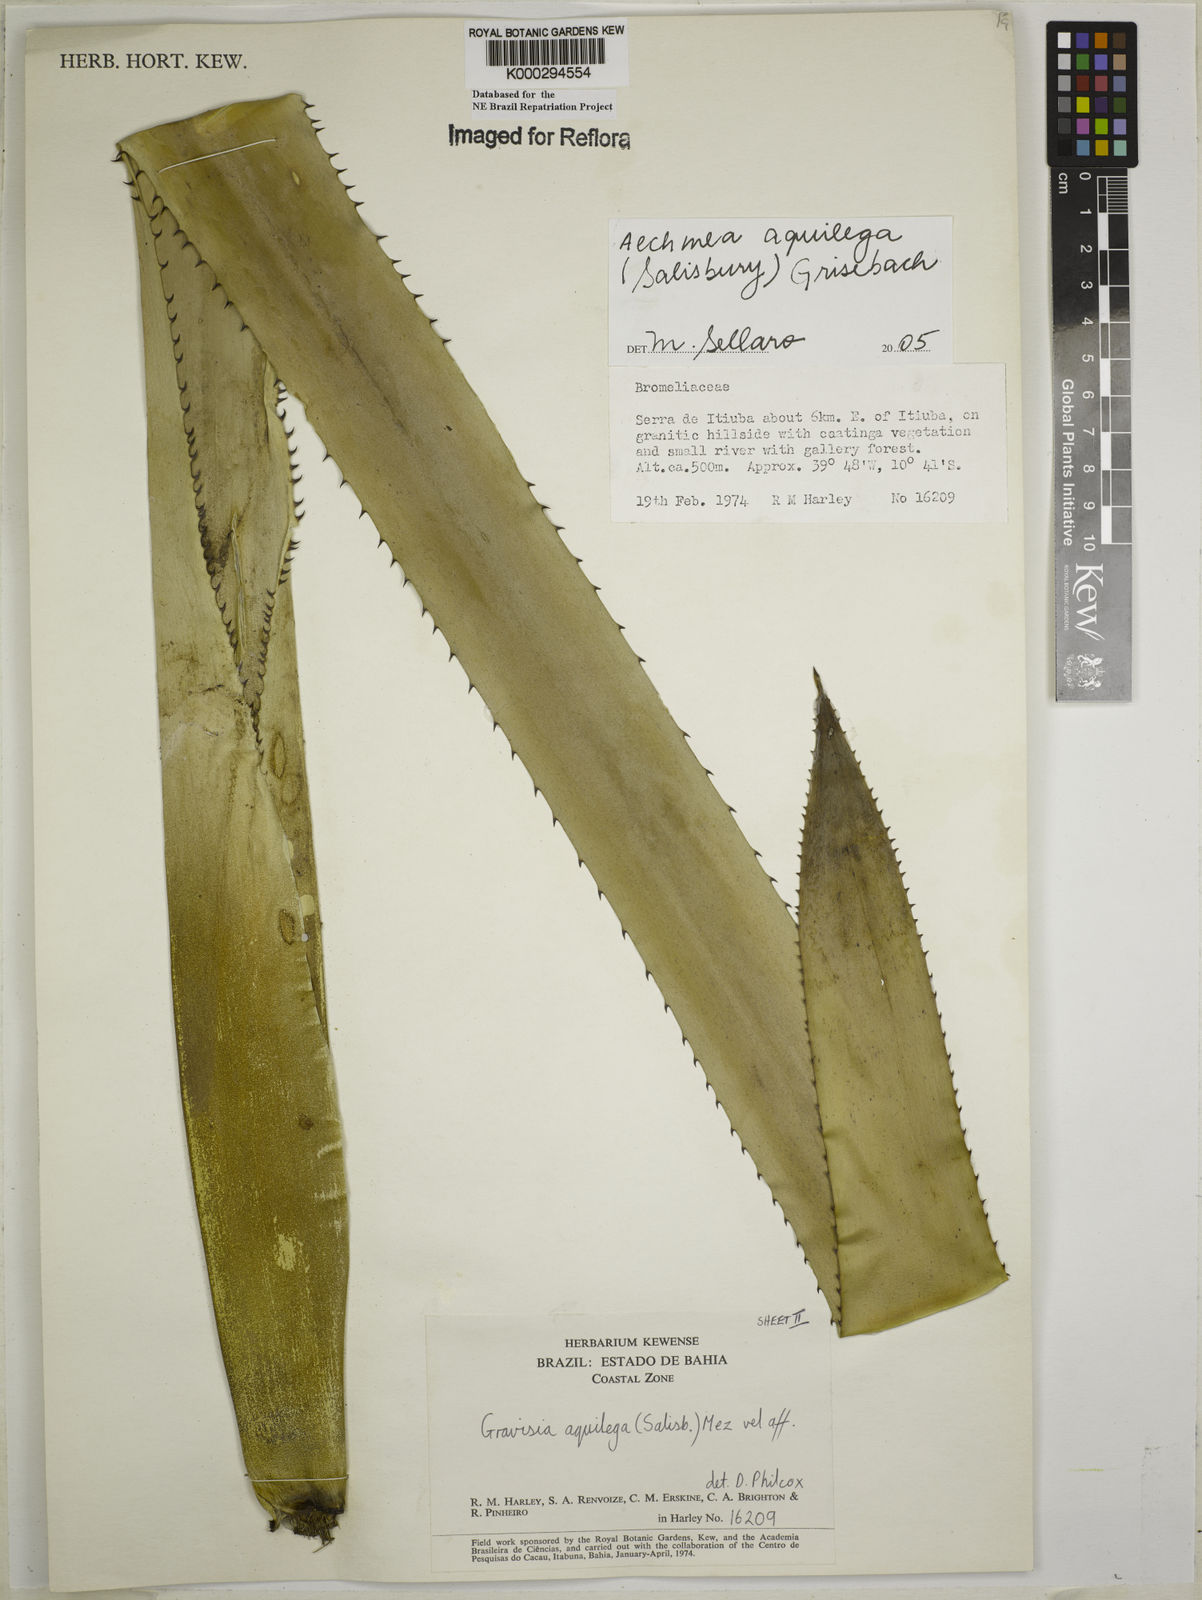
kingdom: Plantae
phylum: Tracheophyta
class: Liliopsida
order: Poales
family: Bromeliaceae
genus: Aechmea
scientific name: Aechmea aquilega
